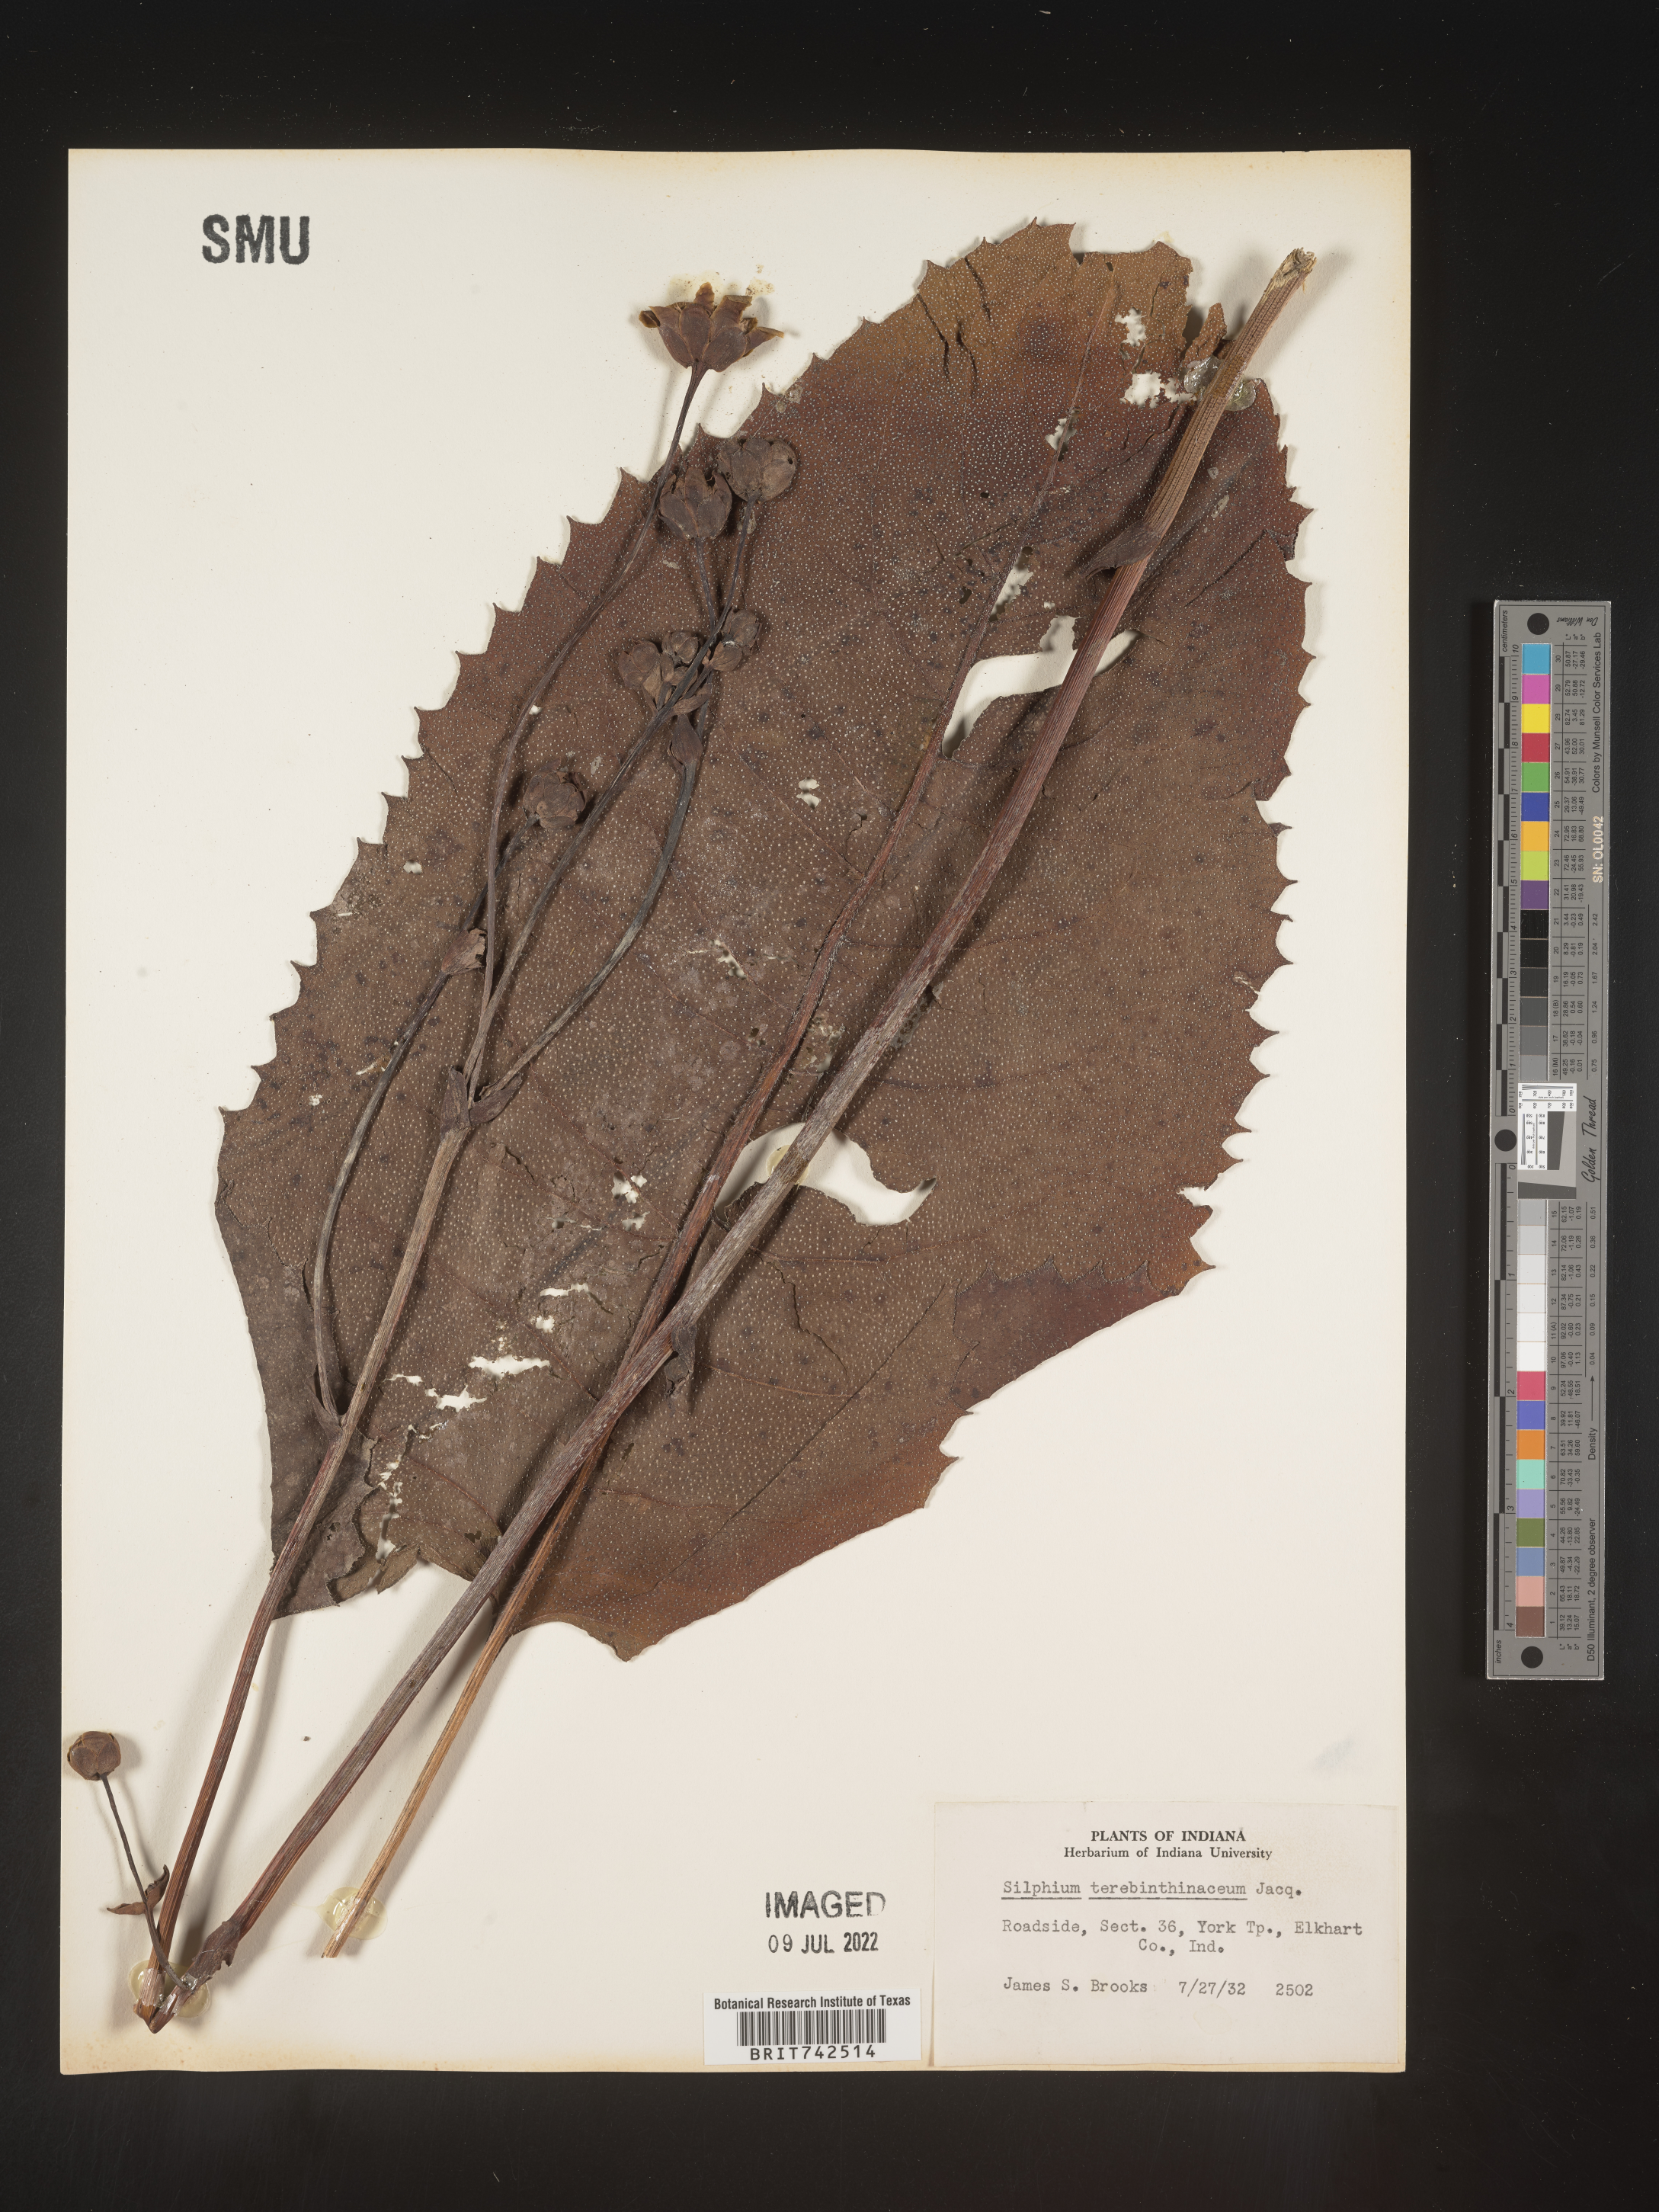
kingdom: Plantae
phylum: Tracheophyta
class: Magnoliopsida
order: Asterales
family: Asteraceae
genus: Silphium
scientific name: Silphium terebinthinaceum
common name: Basal-leaf rosinweed
